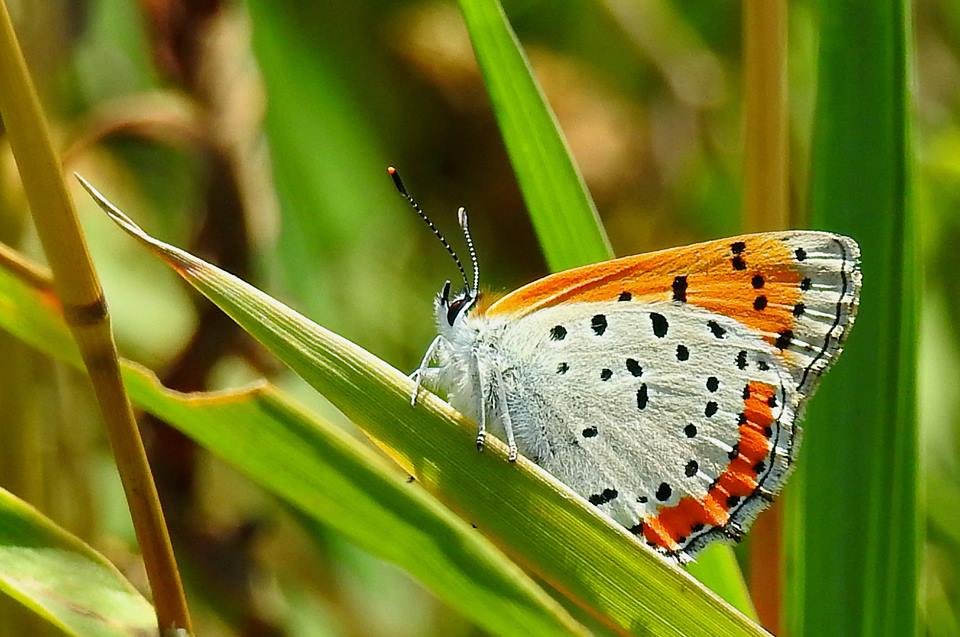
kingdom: Animalia
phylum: Arthropoda
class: Insecta
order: Lepidoptera
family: Sesiidae
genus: Sesia
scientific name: Sesia Lycaena hyllus
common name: Bronze Copper
